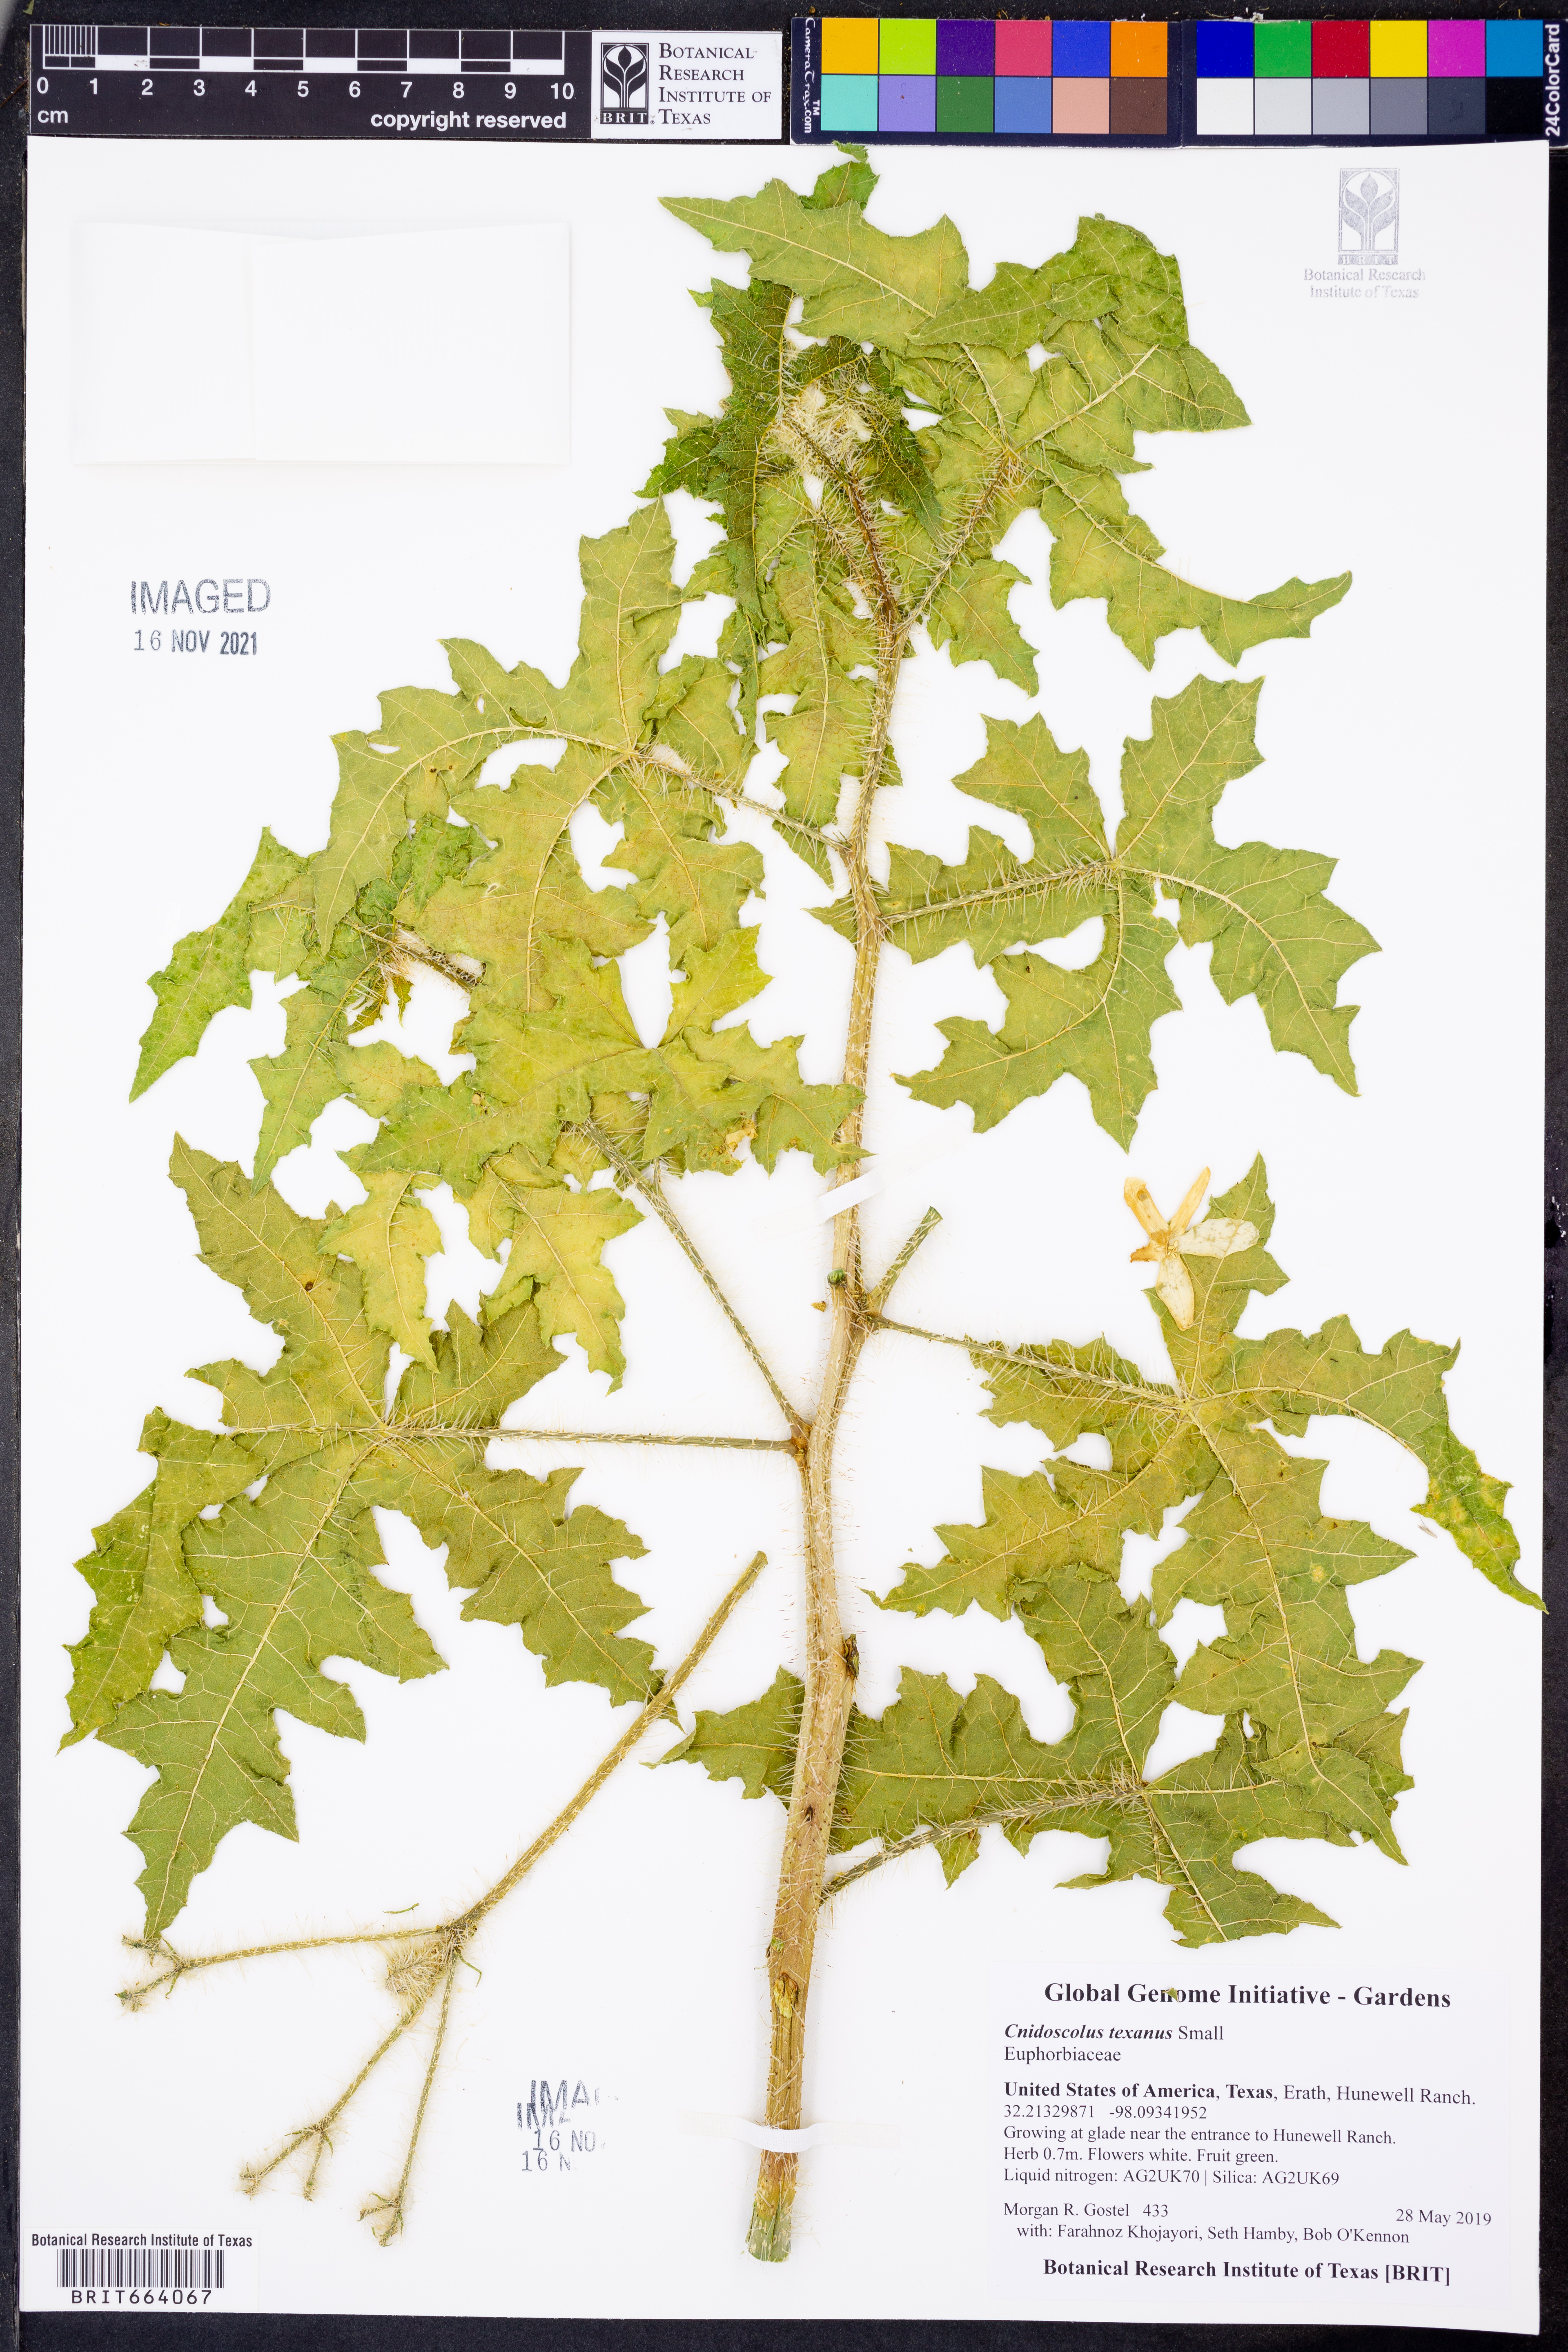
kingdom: Plantae
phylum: Tracheophyta
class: Magnoliopsida
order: Malpighiales
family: Euphorbiaceae
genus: Cnidoscolus
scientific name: Cnidoscolus texanus
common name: Texas bull-nettle
